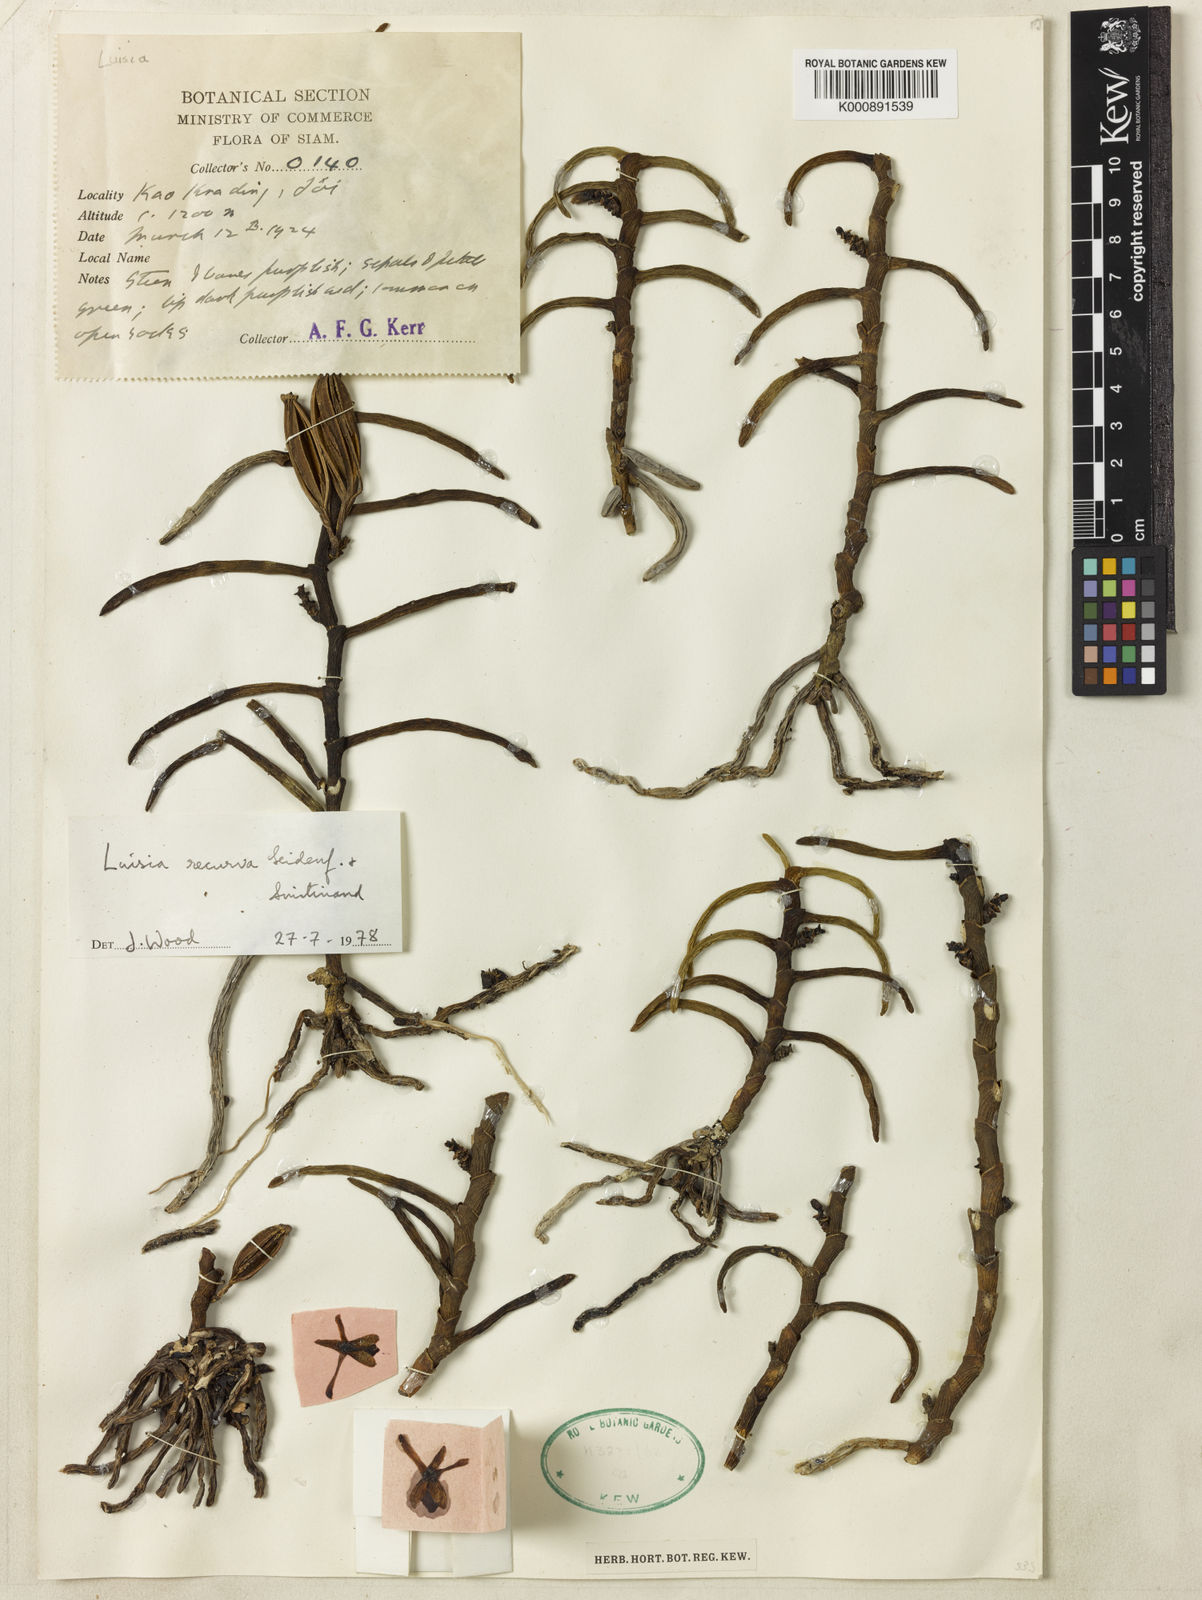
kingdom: Plantae
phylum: Tracheophyta
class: Liliopsida
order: Asparagales
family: Orchidaceae
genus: Luisia
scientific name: Luisia recurva
